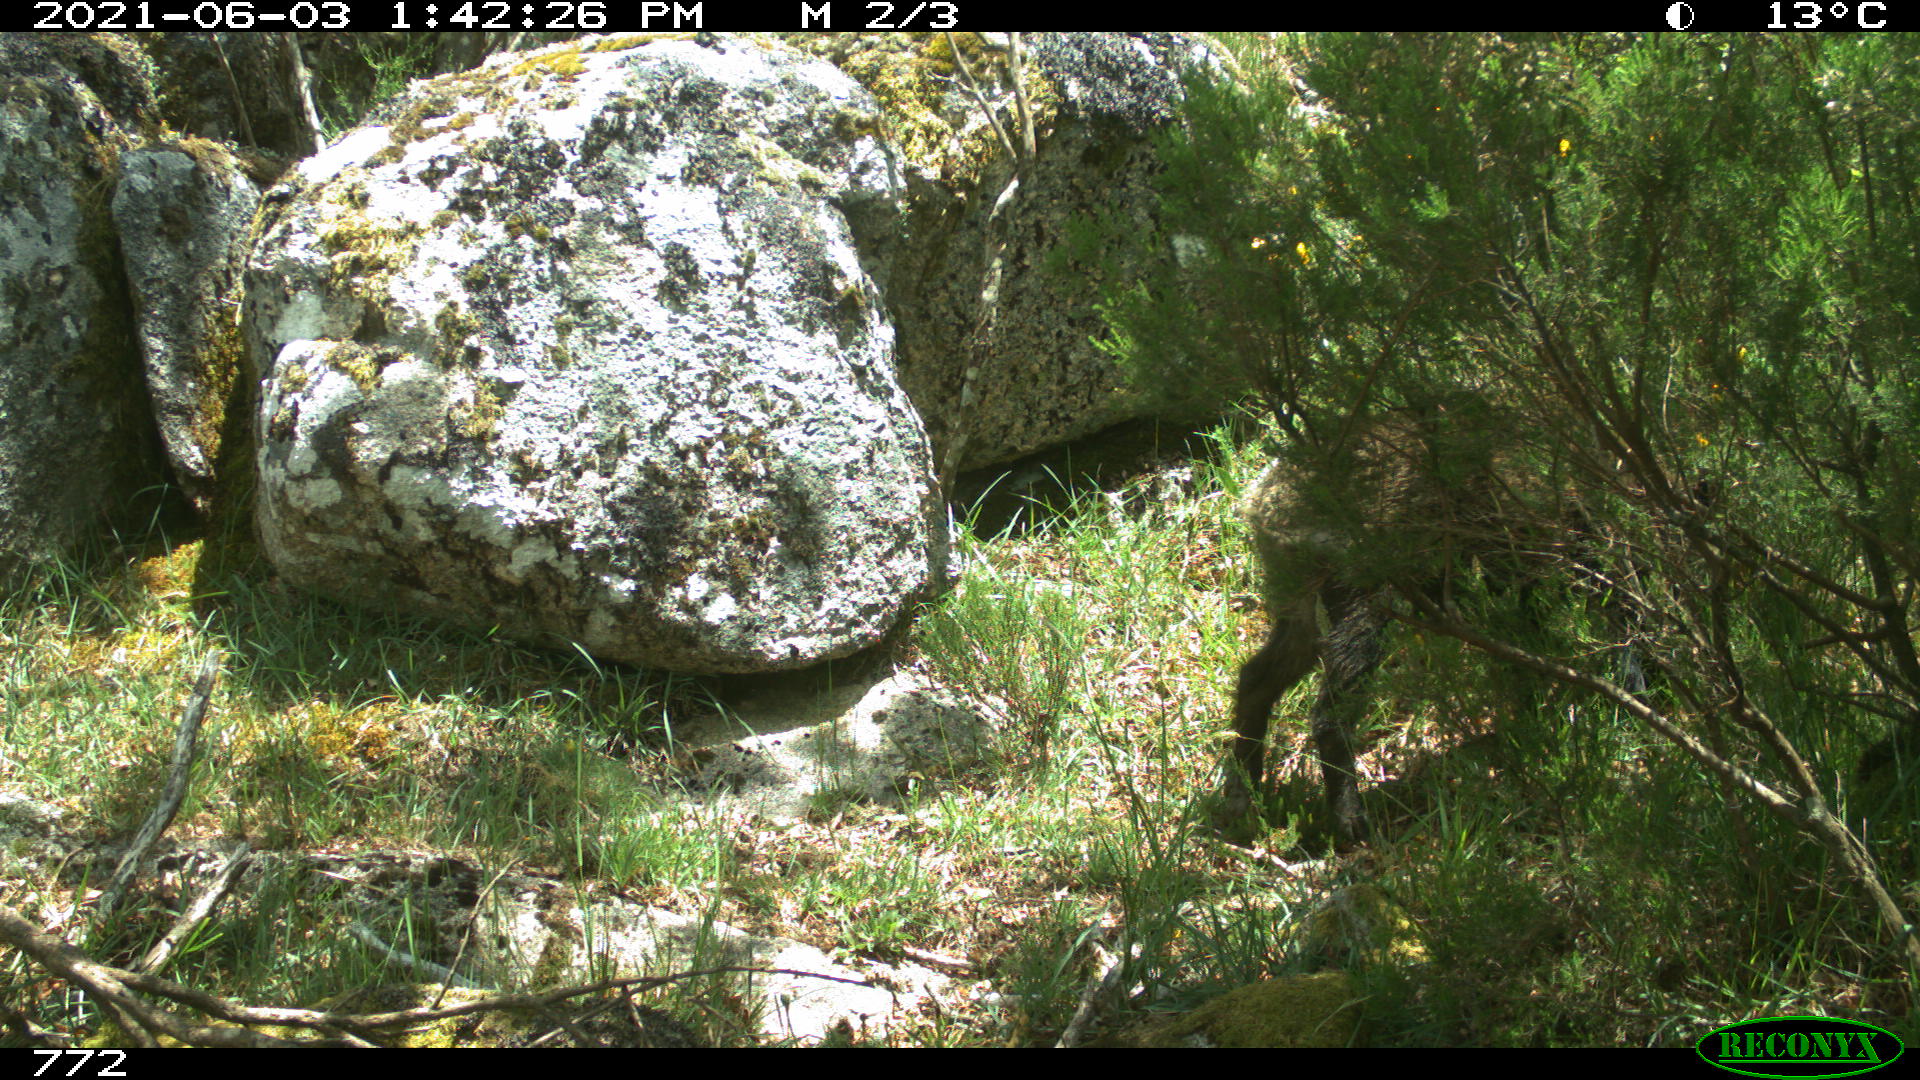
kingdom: Animalia
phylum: Chordata
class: Mammalia
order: Artiodactyla
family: Suidae
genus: Sus
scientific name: Sus scrofa
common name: Wild boar
